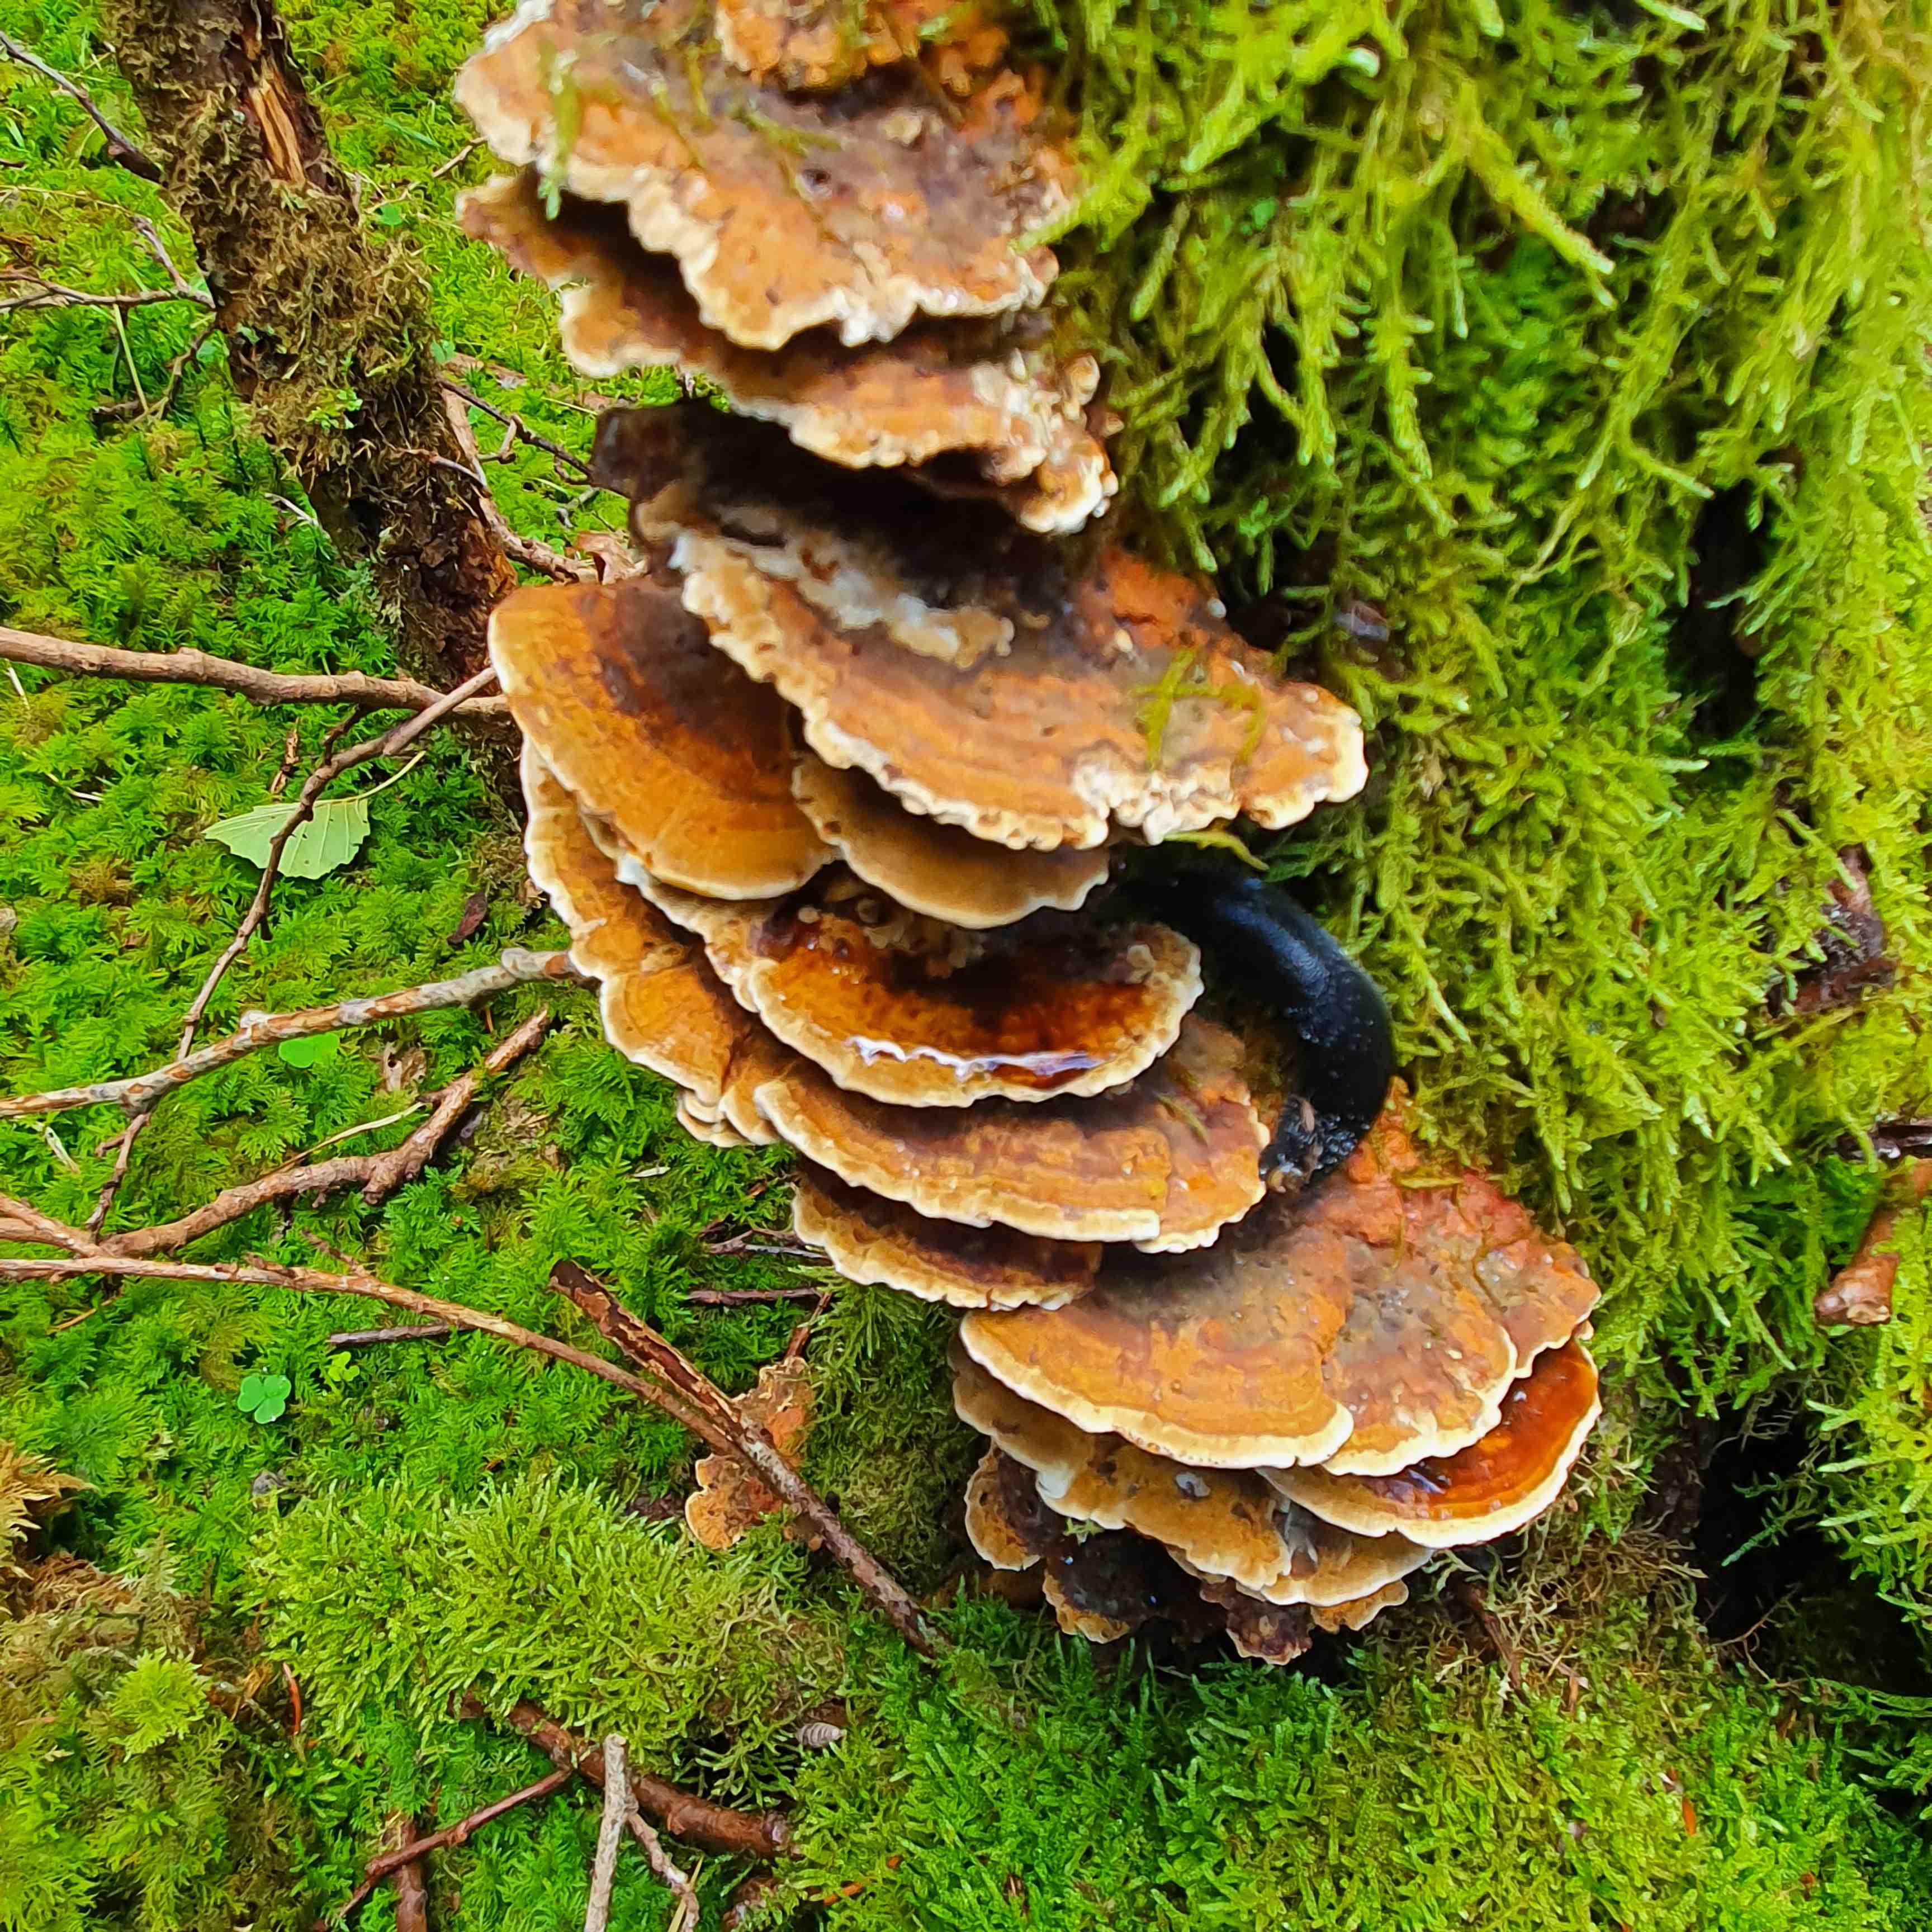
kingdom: Fungi
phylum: Basidiomycota
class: Agaricomycetes
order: Hymenochaetales
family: Hymenochaetaceae
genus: Xanthoporia
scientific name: Xanthoporia radiata
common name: elle-spejlporesvamp
